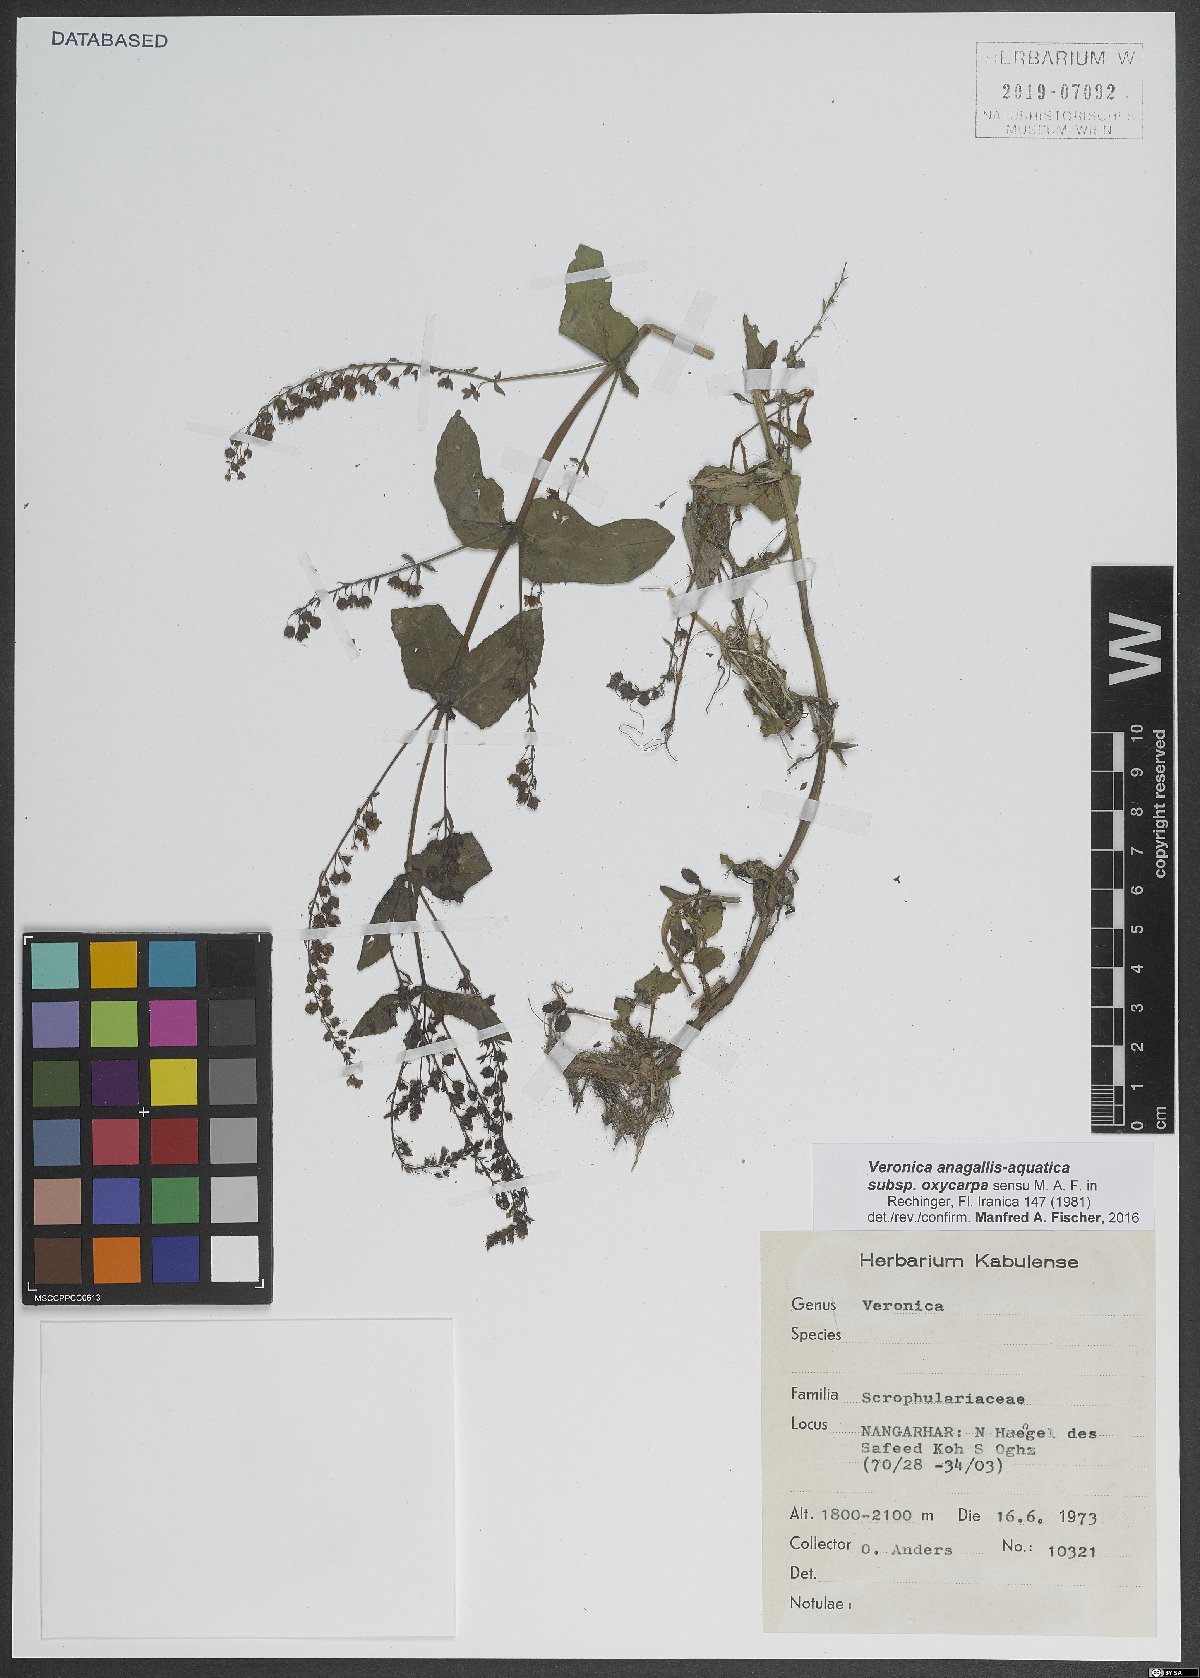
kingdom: Plantae
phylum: Tracheophyta
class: Magnoliopsida
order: Lamiales
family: Plantaginaceae
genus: Veronica
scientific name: Veronica oxycarpa
